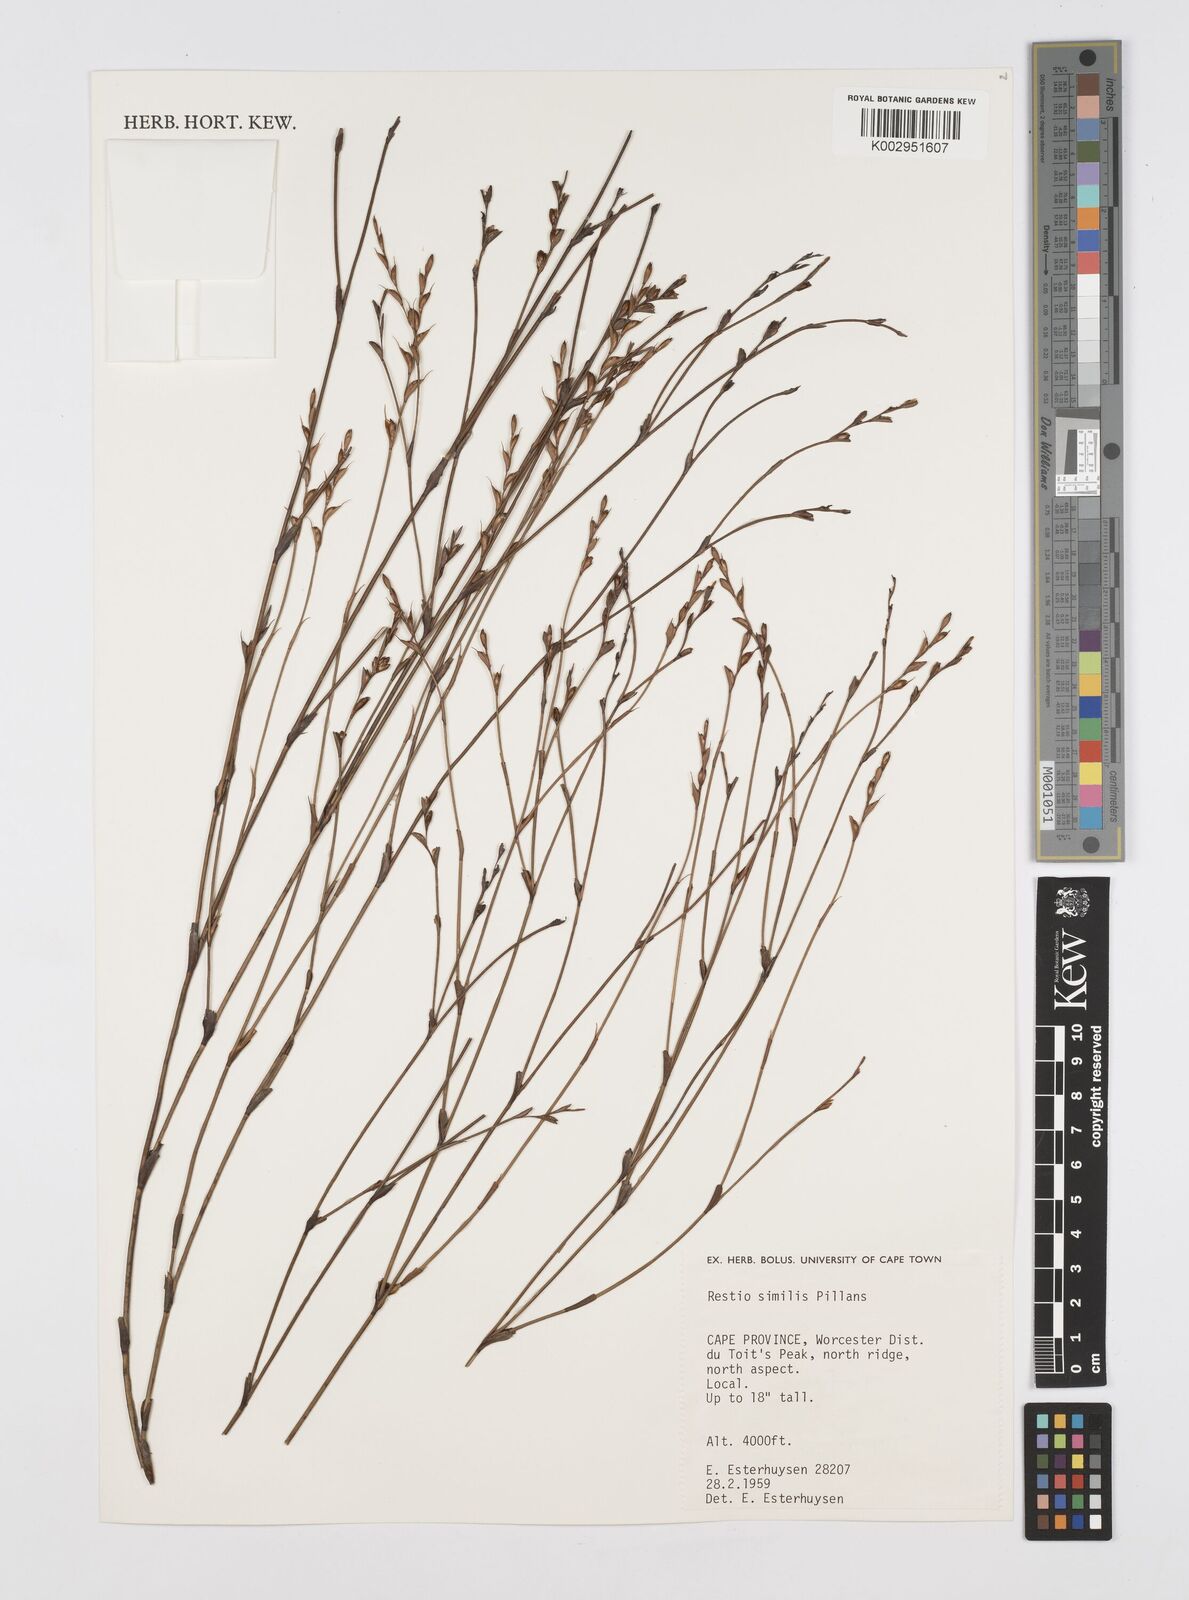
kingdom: Plantae
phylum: Tracheophyta
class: Liliopsida
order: Poales
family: Restionaceae
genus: Restio
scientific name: Restio similis
